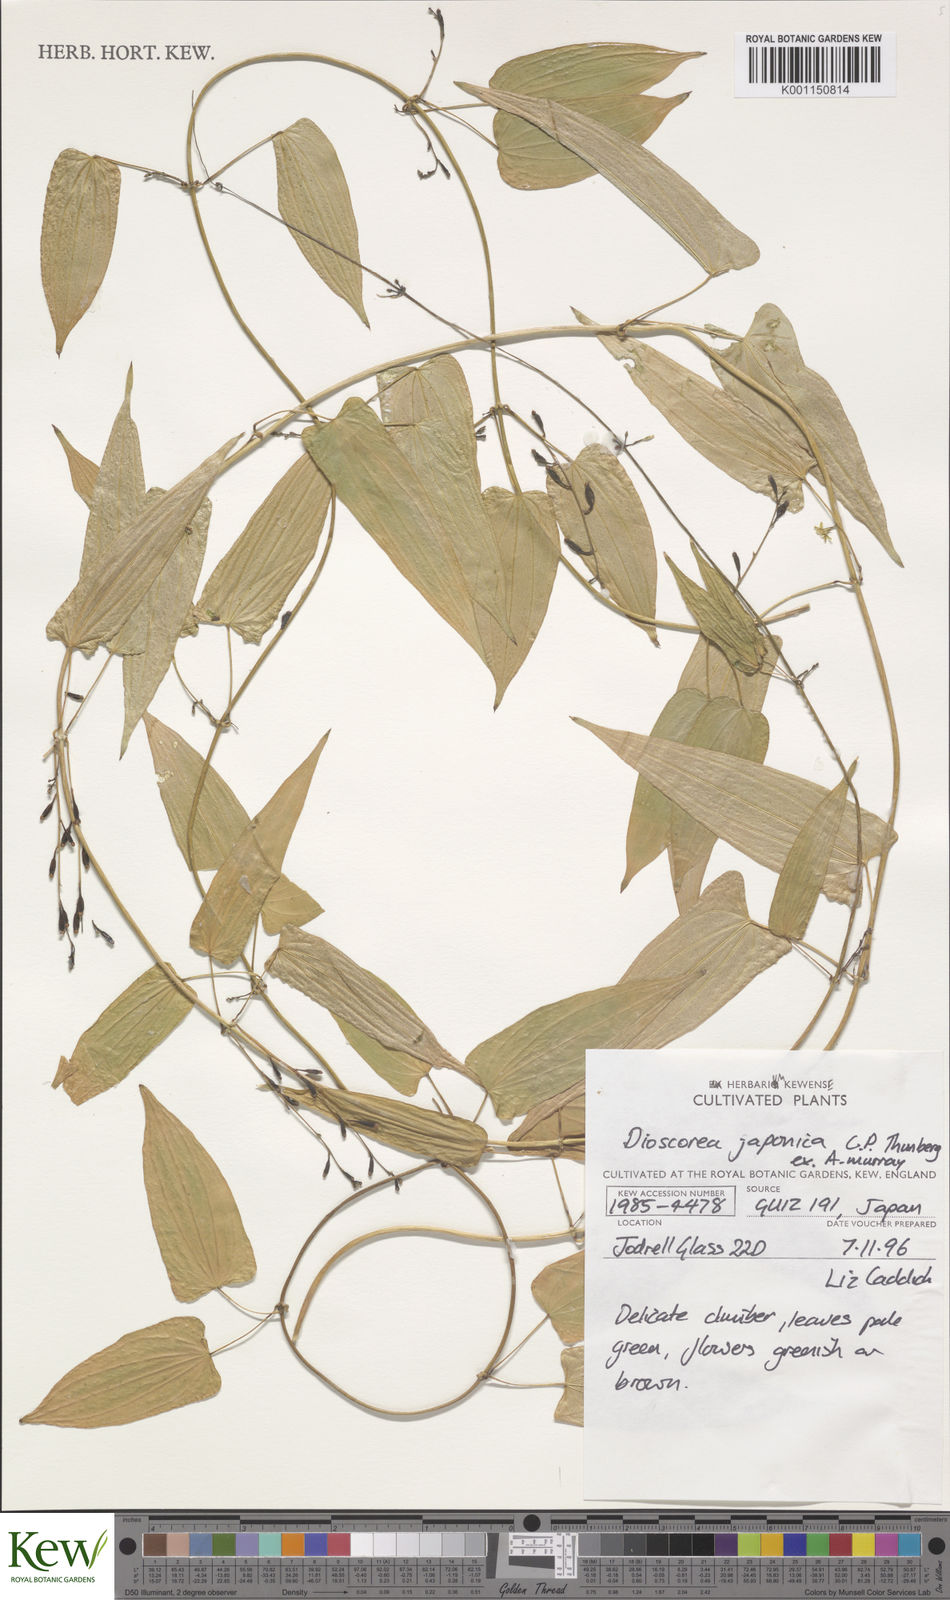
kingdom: Plantae
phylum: Tracheophyta
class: Liliopsida
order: Dioscoreales
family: Dioscoreaceae
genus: Dioscorea
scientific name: Dioscorea japonica
